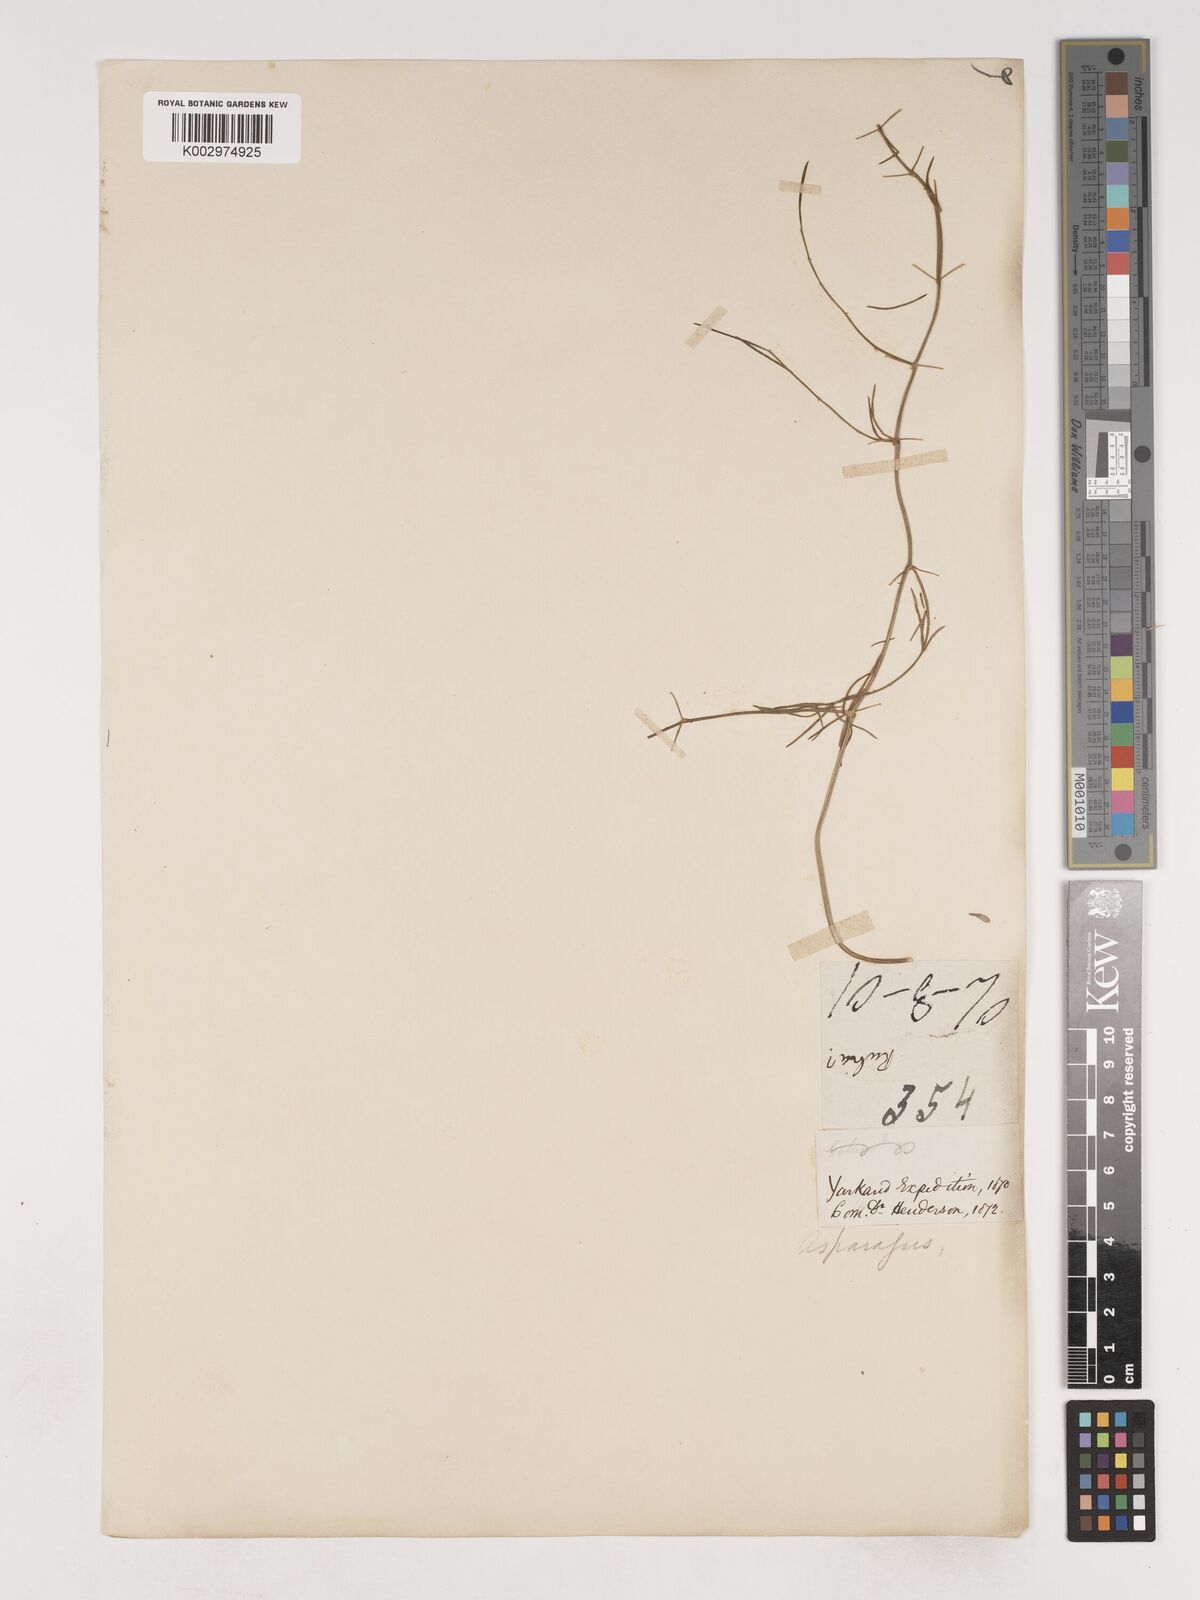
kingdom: Plantae
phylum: Tracheophyta
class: Liliopsida
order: Asparagales
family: Asparagaceae
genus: Asparagus
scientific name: Asparagus officinalis
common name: Garden asparagus
